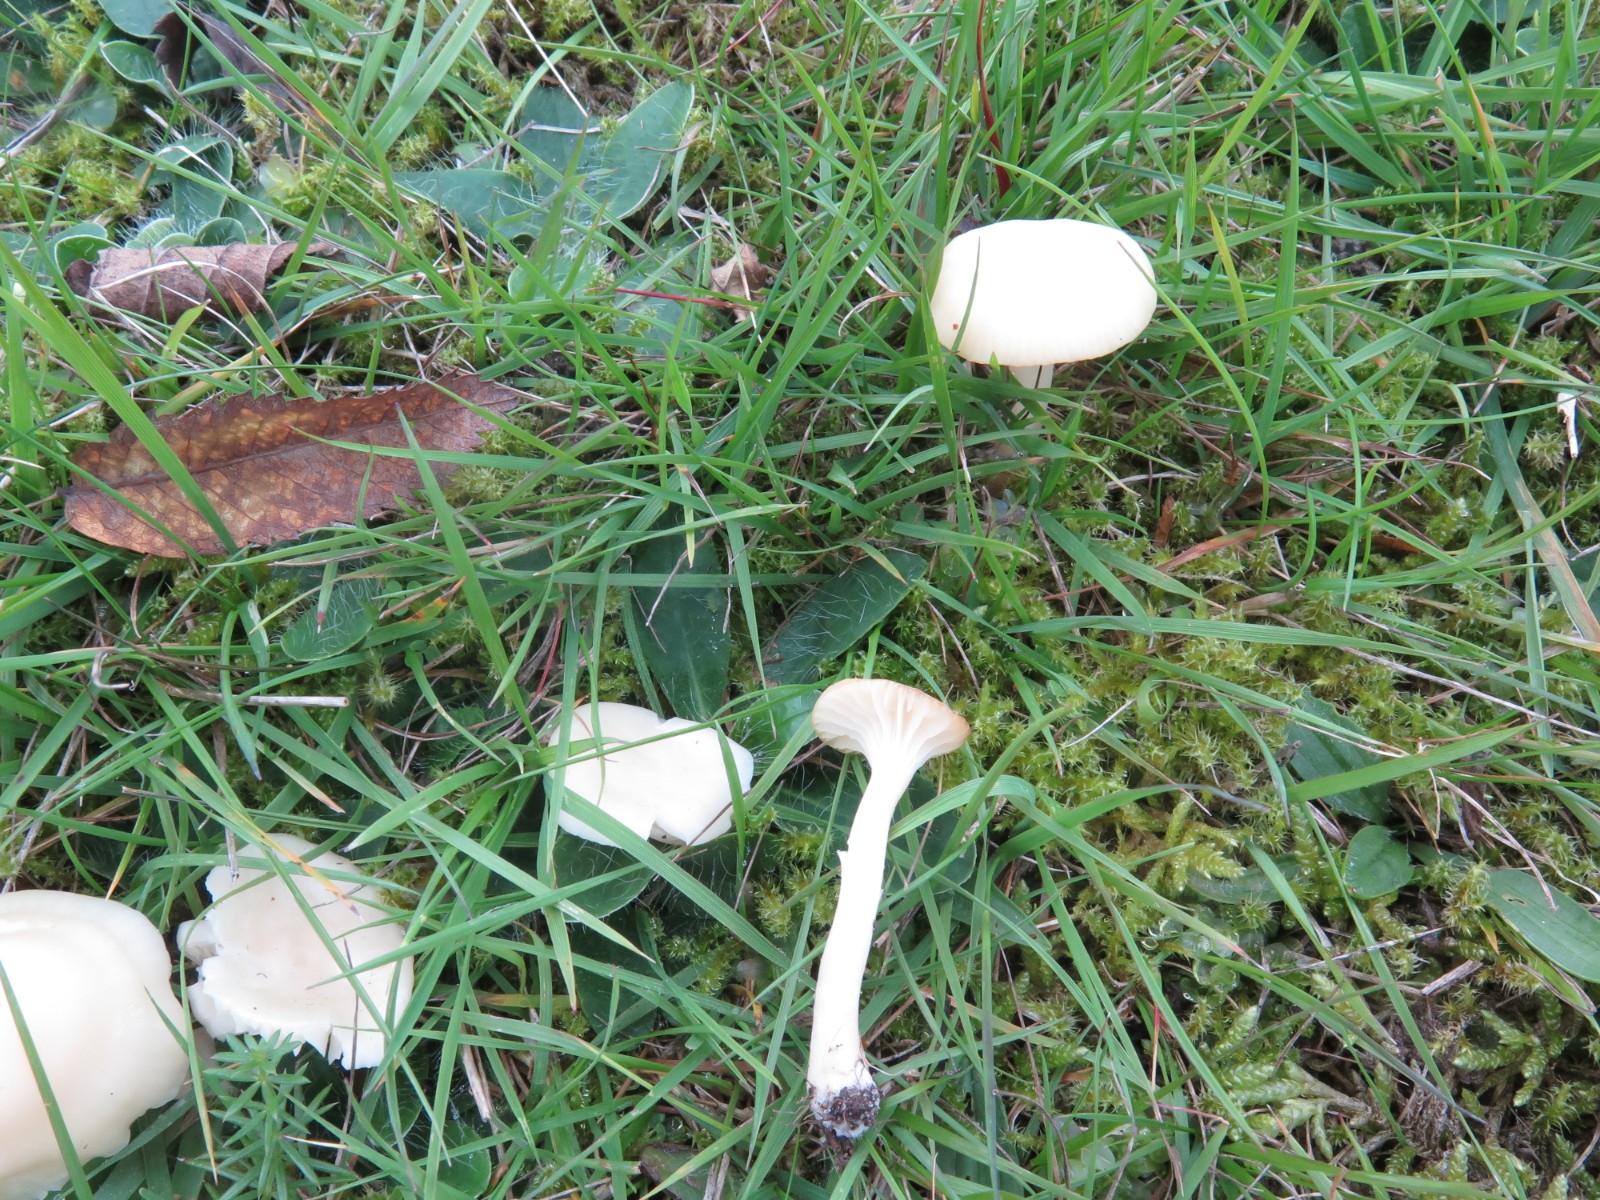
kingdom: Fungi
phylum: Basidiomycota
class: Agaricomycetes
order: Agaricales
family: Hygrophoraceae
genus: Cuphophyllus
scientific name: Cuphophyllus virgineus
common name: snehvid vokshat
